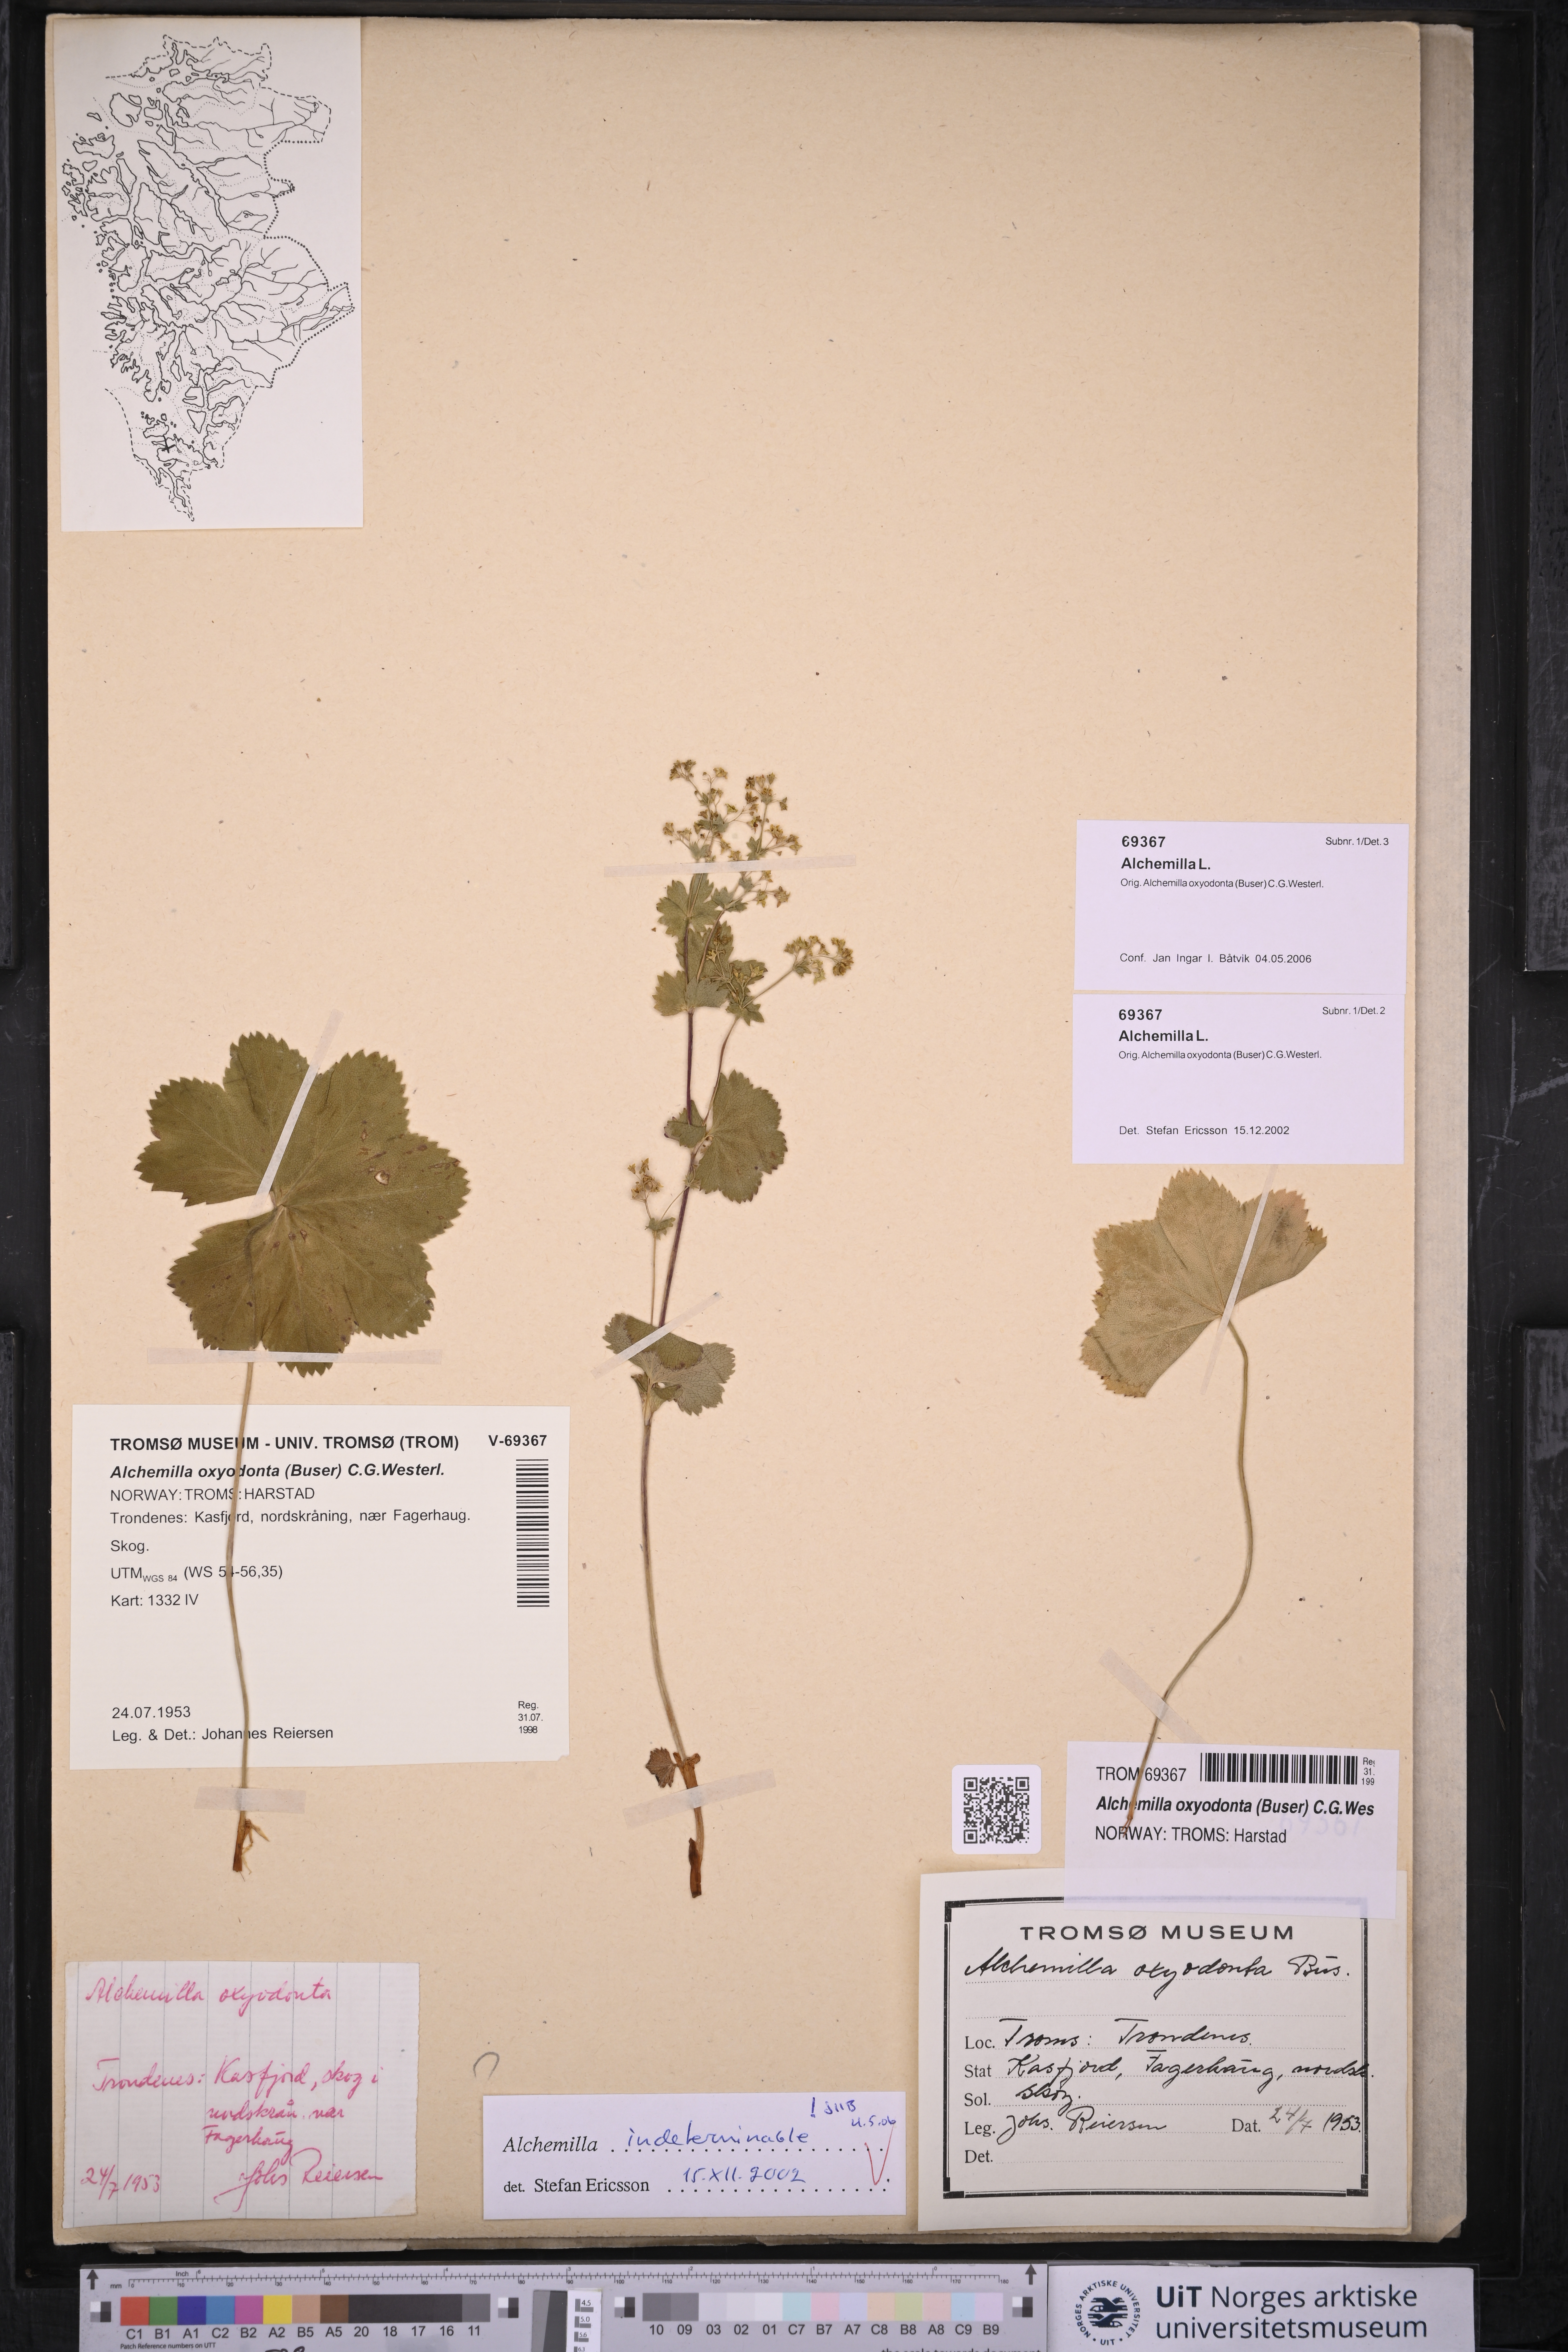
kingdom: Plantae
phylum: Tracheophyta
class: Magnoliopsida
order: Rosales
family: Rosaceae
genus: Alchemilla
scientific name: Alchemilla
